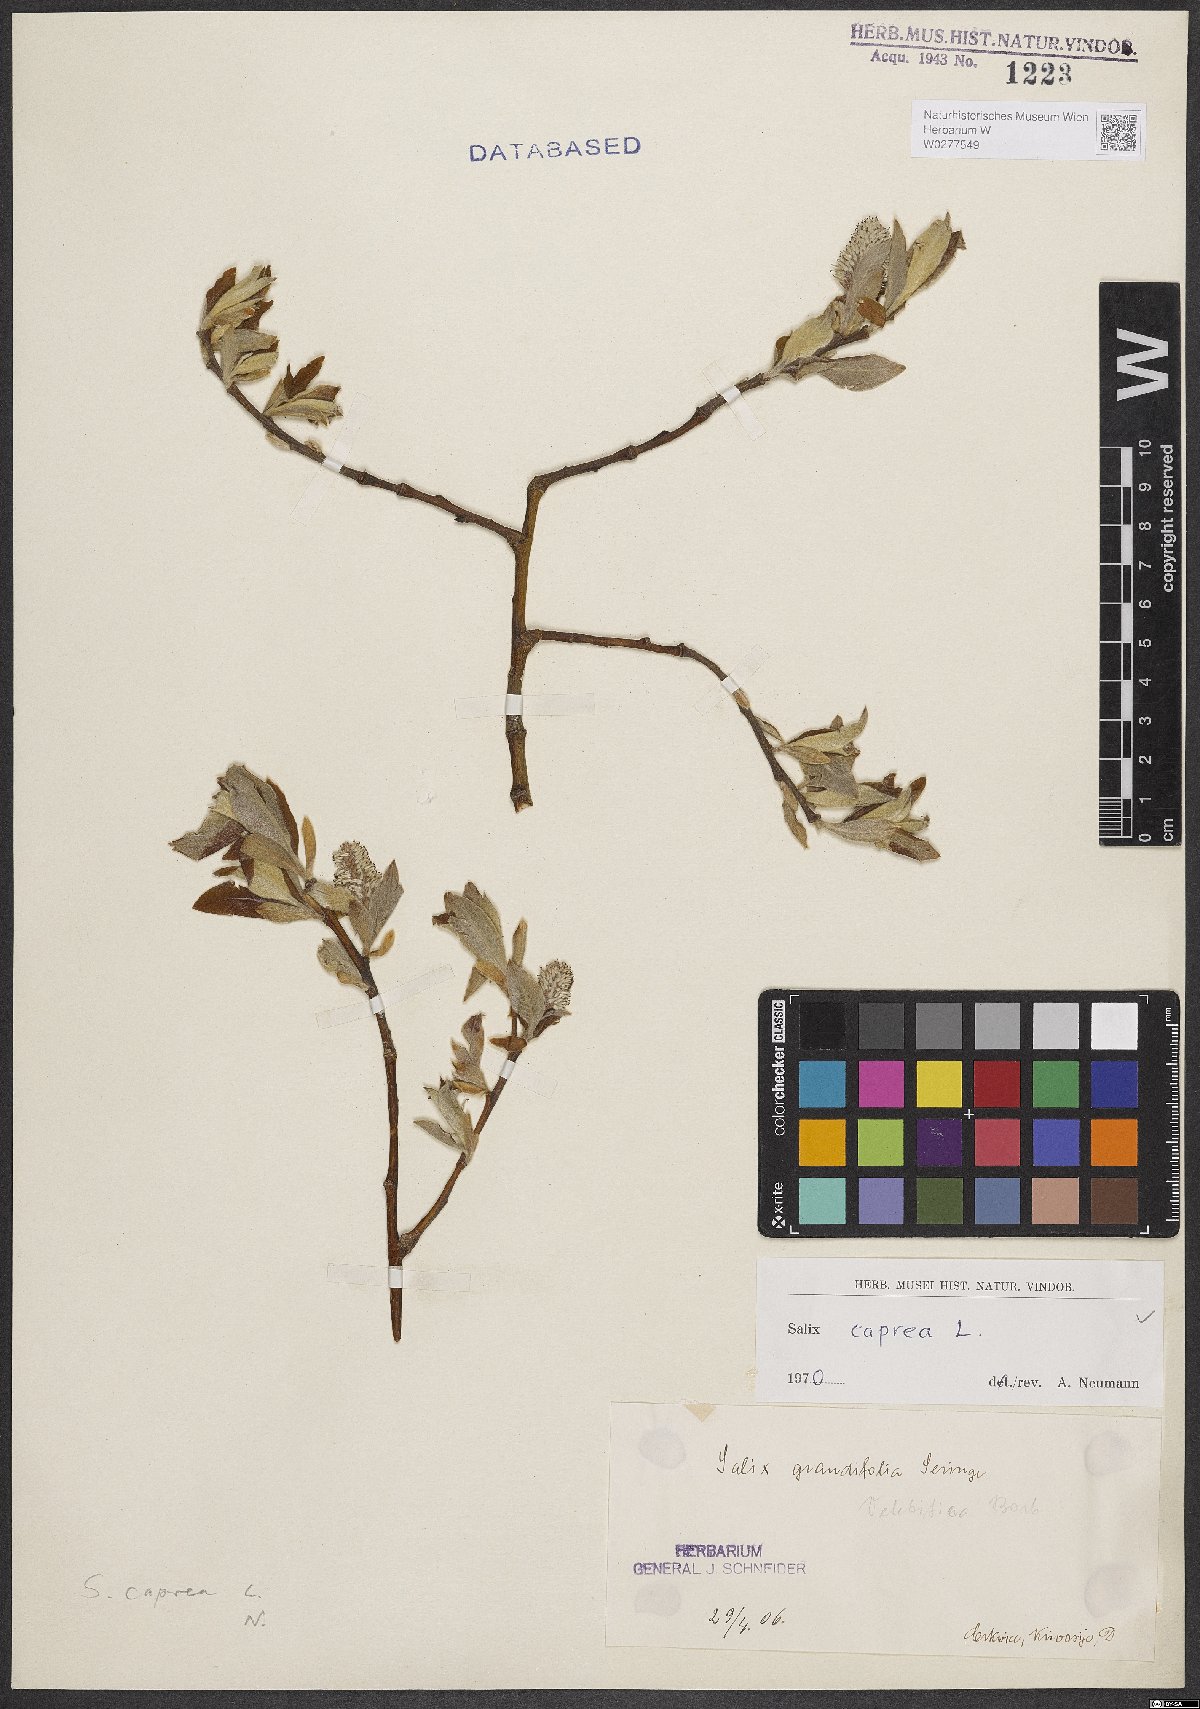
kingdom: Plantae
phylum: Tracheophyta
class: Magnoliopsida
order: Malpighiales
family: Salicaceae
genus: Salix
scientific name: Salix caprea
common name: Goat willow
